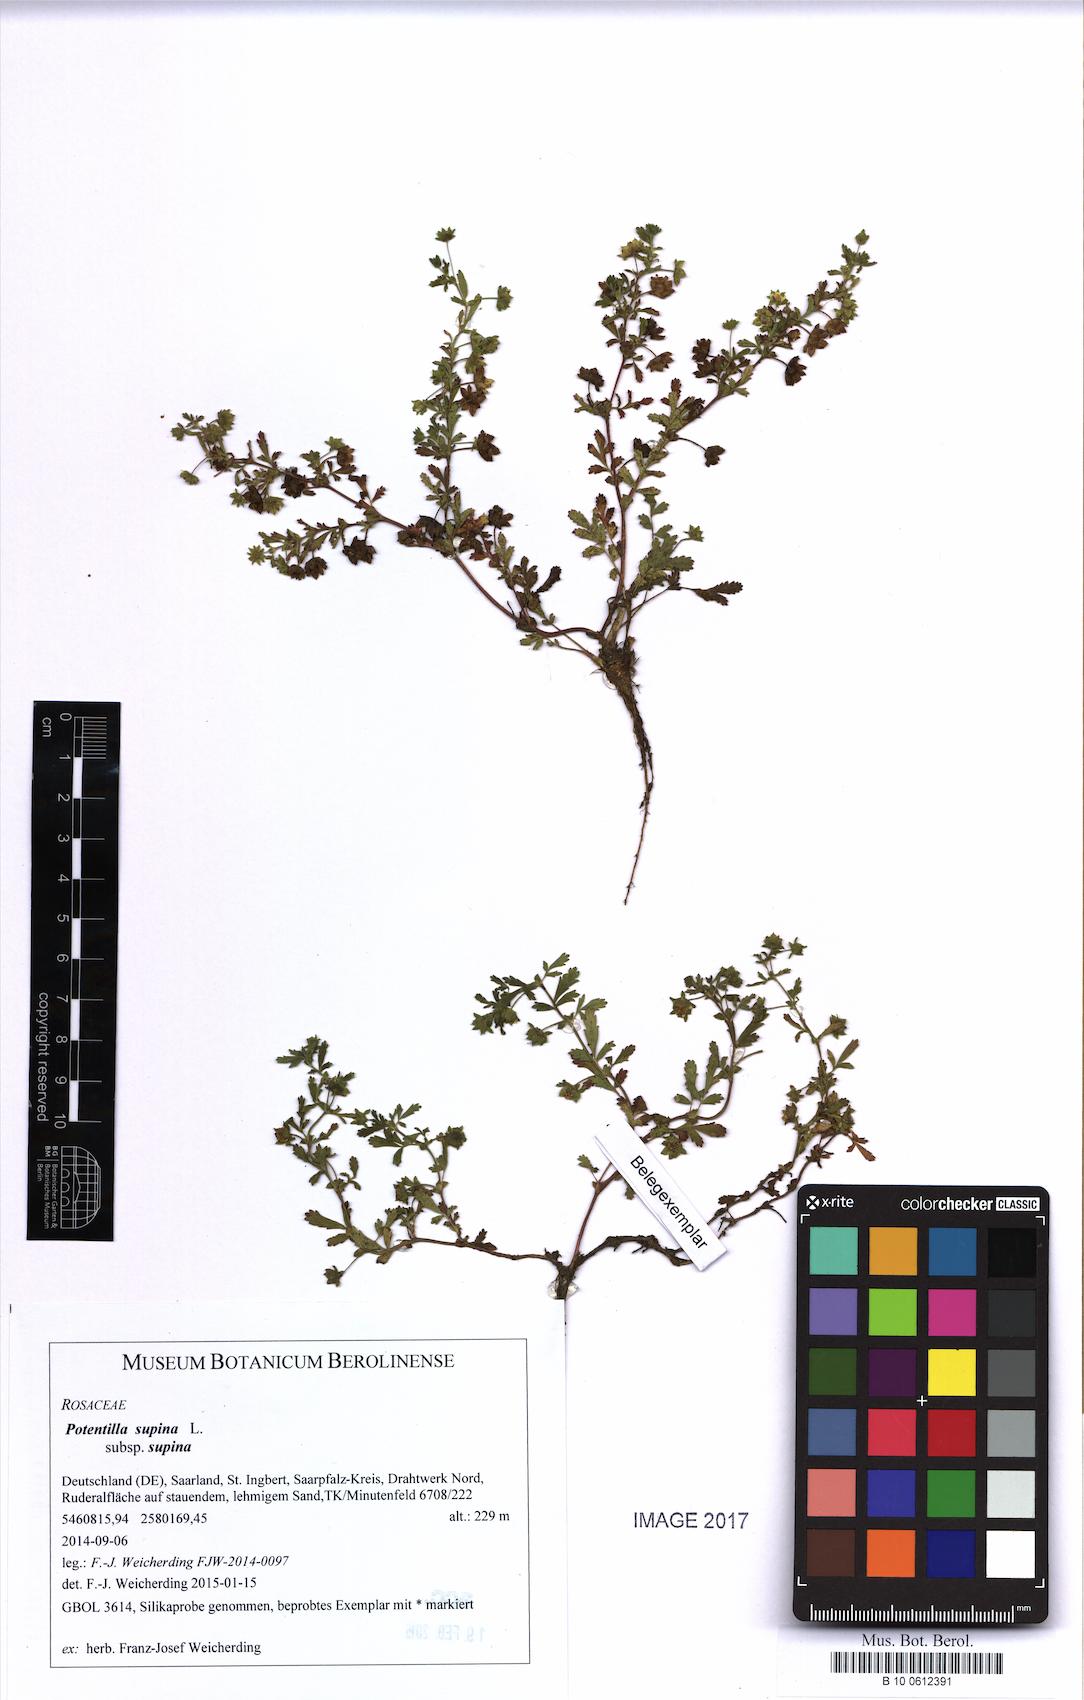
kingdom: Plantae
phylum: Tracheophyta
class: Magnoliopsida
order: Rosales
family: Rosaceae
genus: Potentilla
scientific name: Potentilla supina
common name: Prostrate cinquefoil
